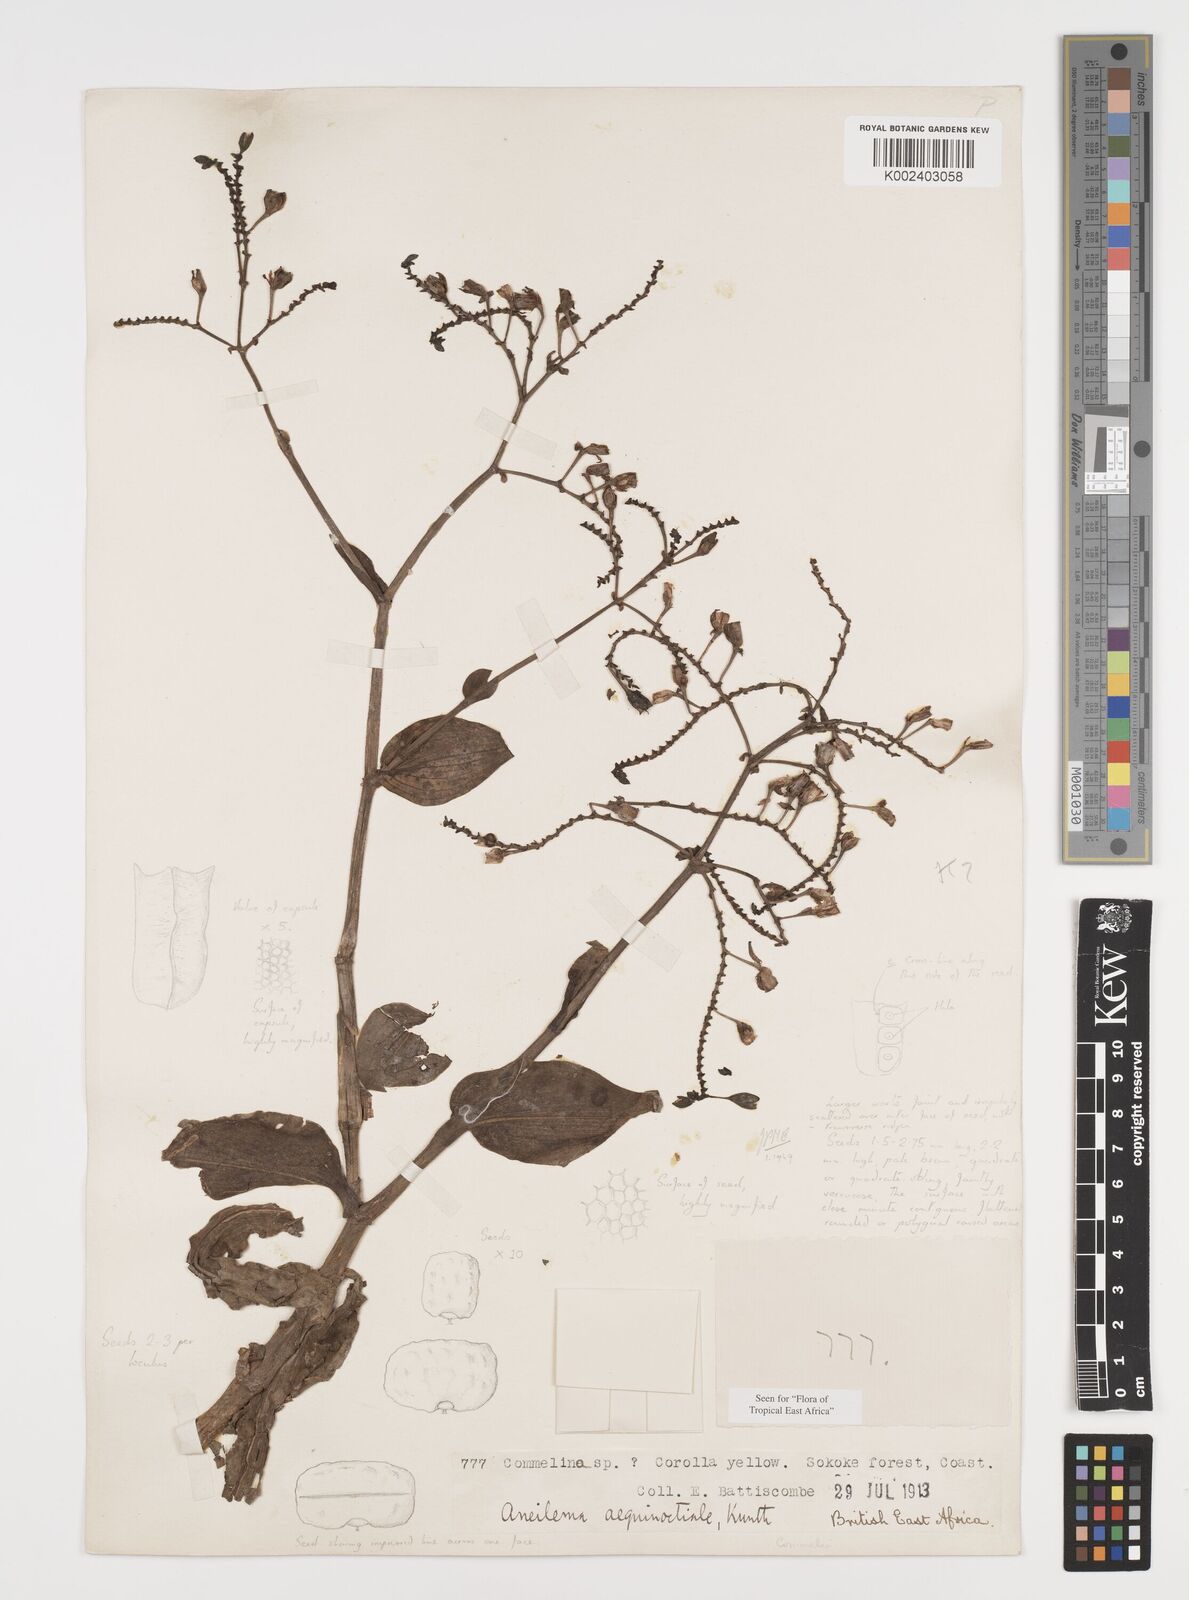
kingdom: Plantae
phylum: Tracheophyta
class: Liliopsida
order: Commelinales
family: Commelinaceae
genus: Aneilema
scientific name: Aneilema aequinoctiale
